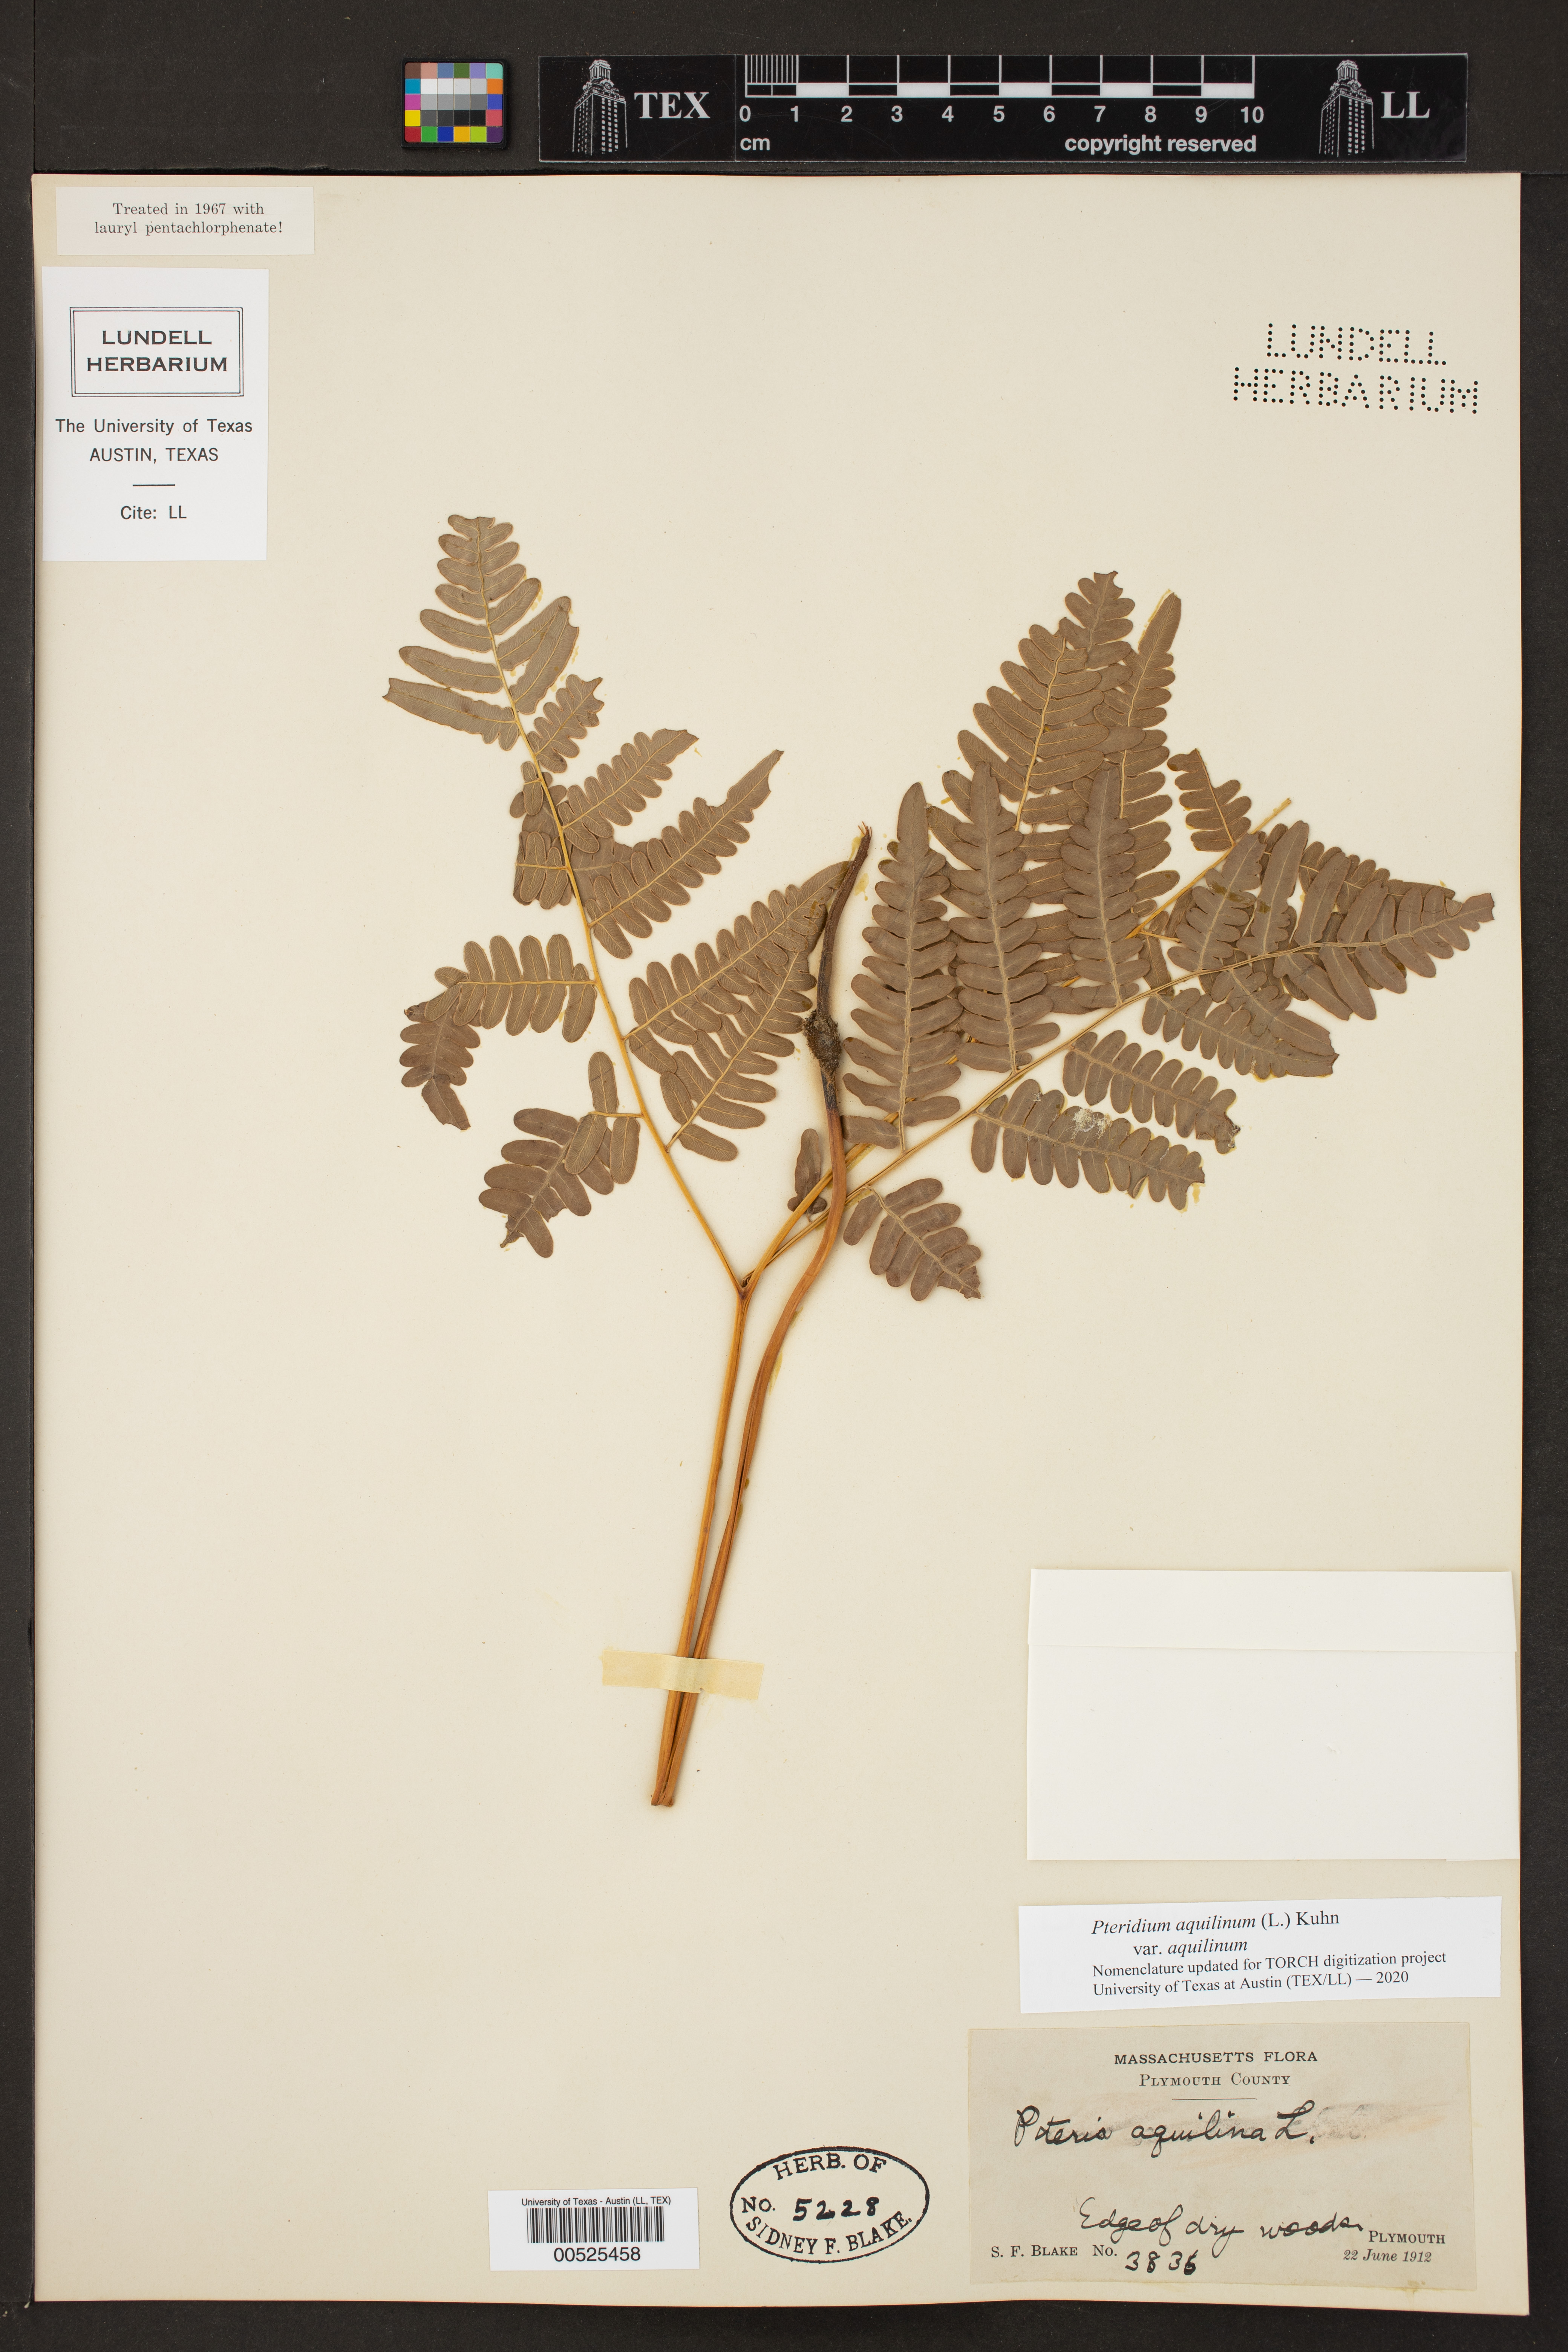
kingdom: Plantae
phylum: Tracheophyta
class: Polypodiopsida
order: Polypodiales
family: Dennstaedtiaceae
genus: Pteridium
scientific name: Pteridium aquilinum
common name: Bracken
